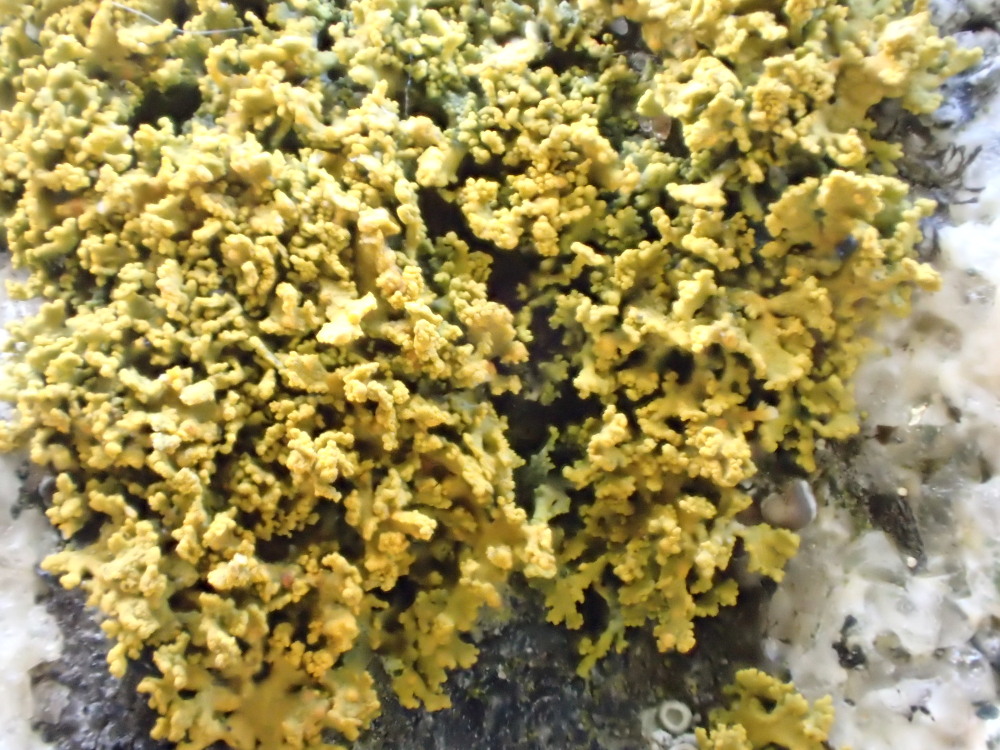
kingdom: Fungi
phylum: Ascomycota
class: Lecanoromycetes
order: Teloschistales
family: Teloschistaceae
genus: Polycauliona
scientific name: Polycauliona candelaria
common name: tue-orangelav
